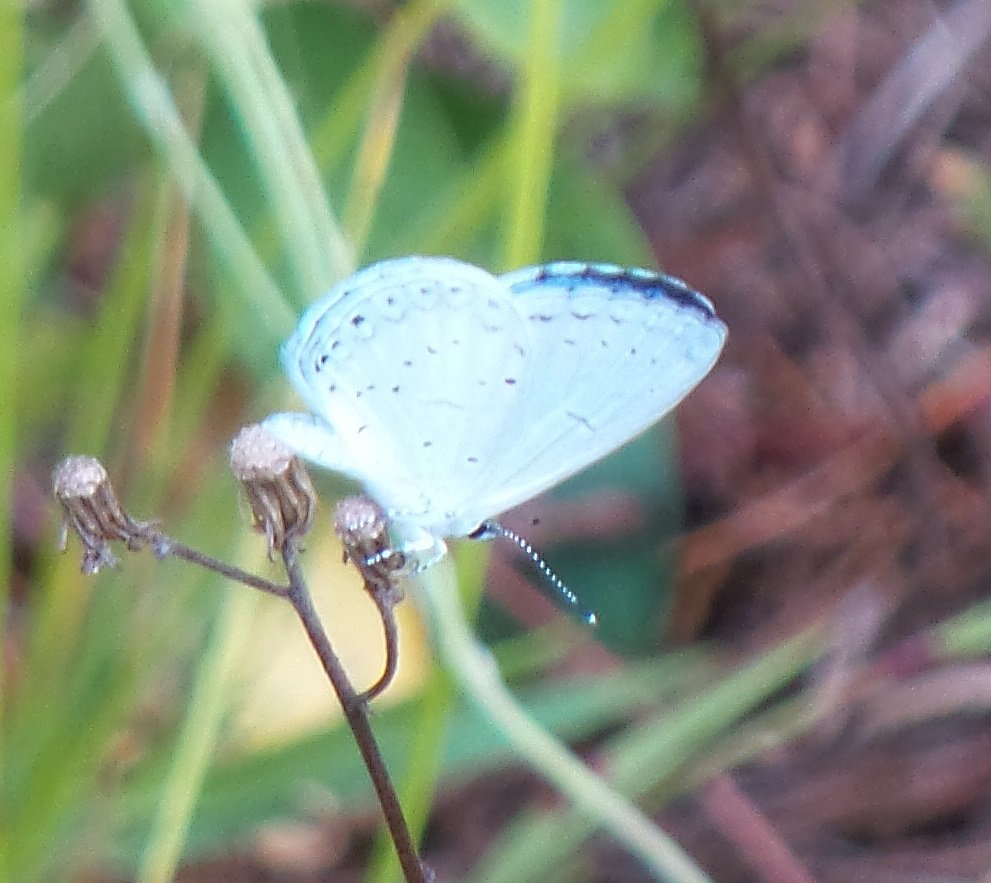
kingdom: Animalia
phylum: Arthropoda
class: Insecta
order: Lepidoptera
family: Lycaenidae
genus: Celastrina
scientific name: Celastrina
